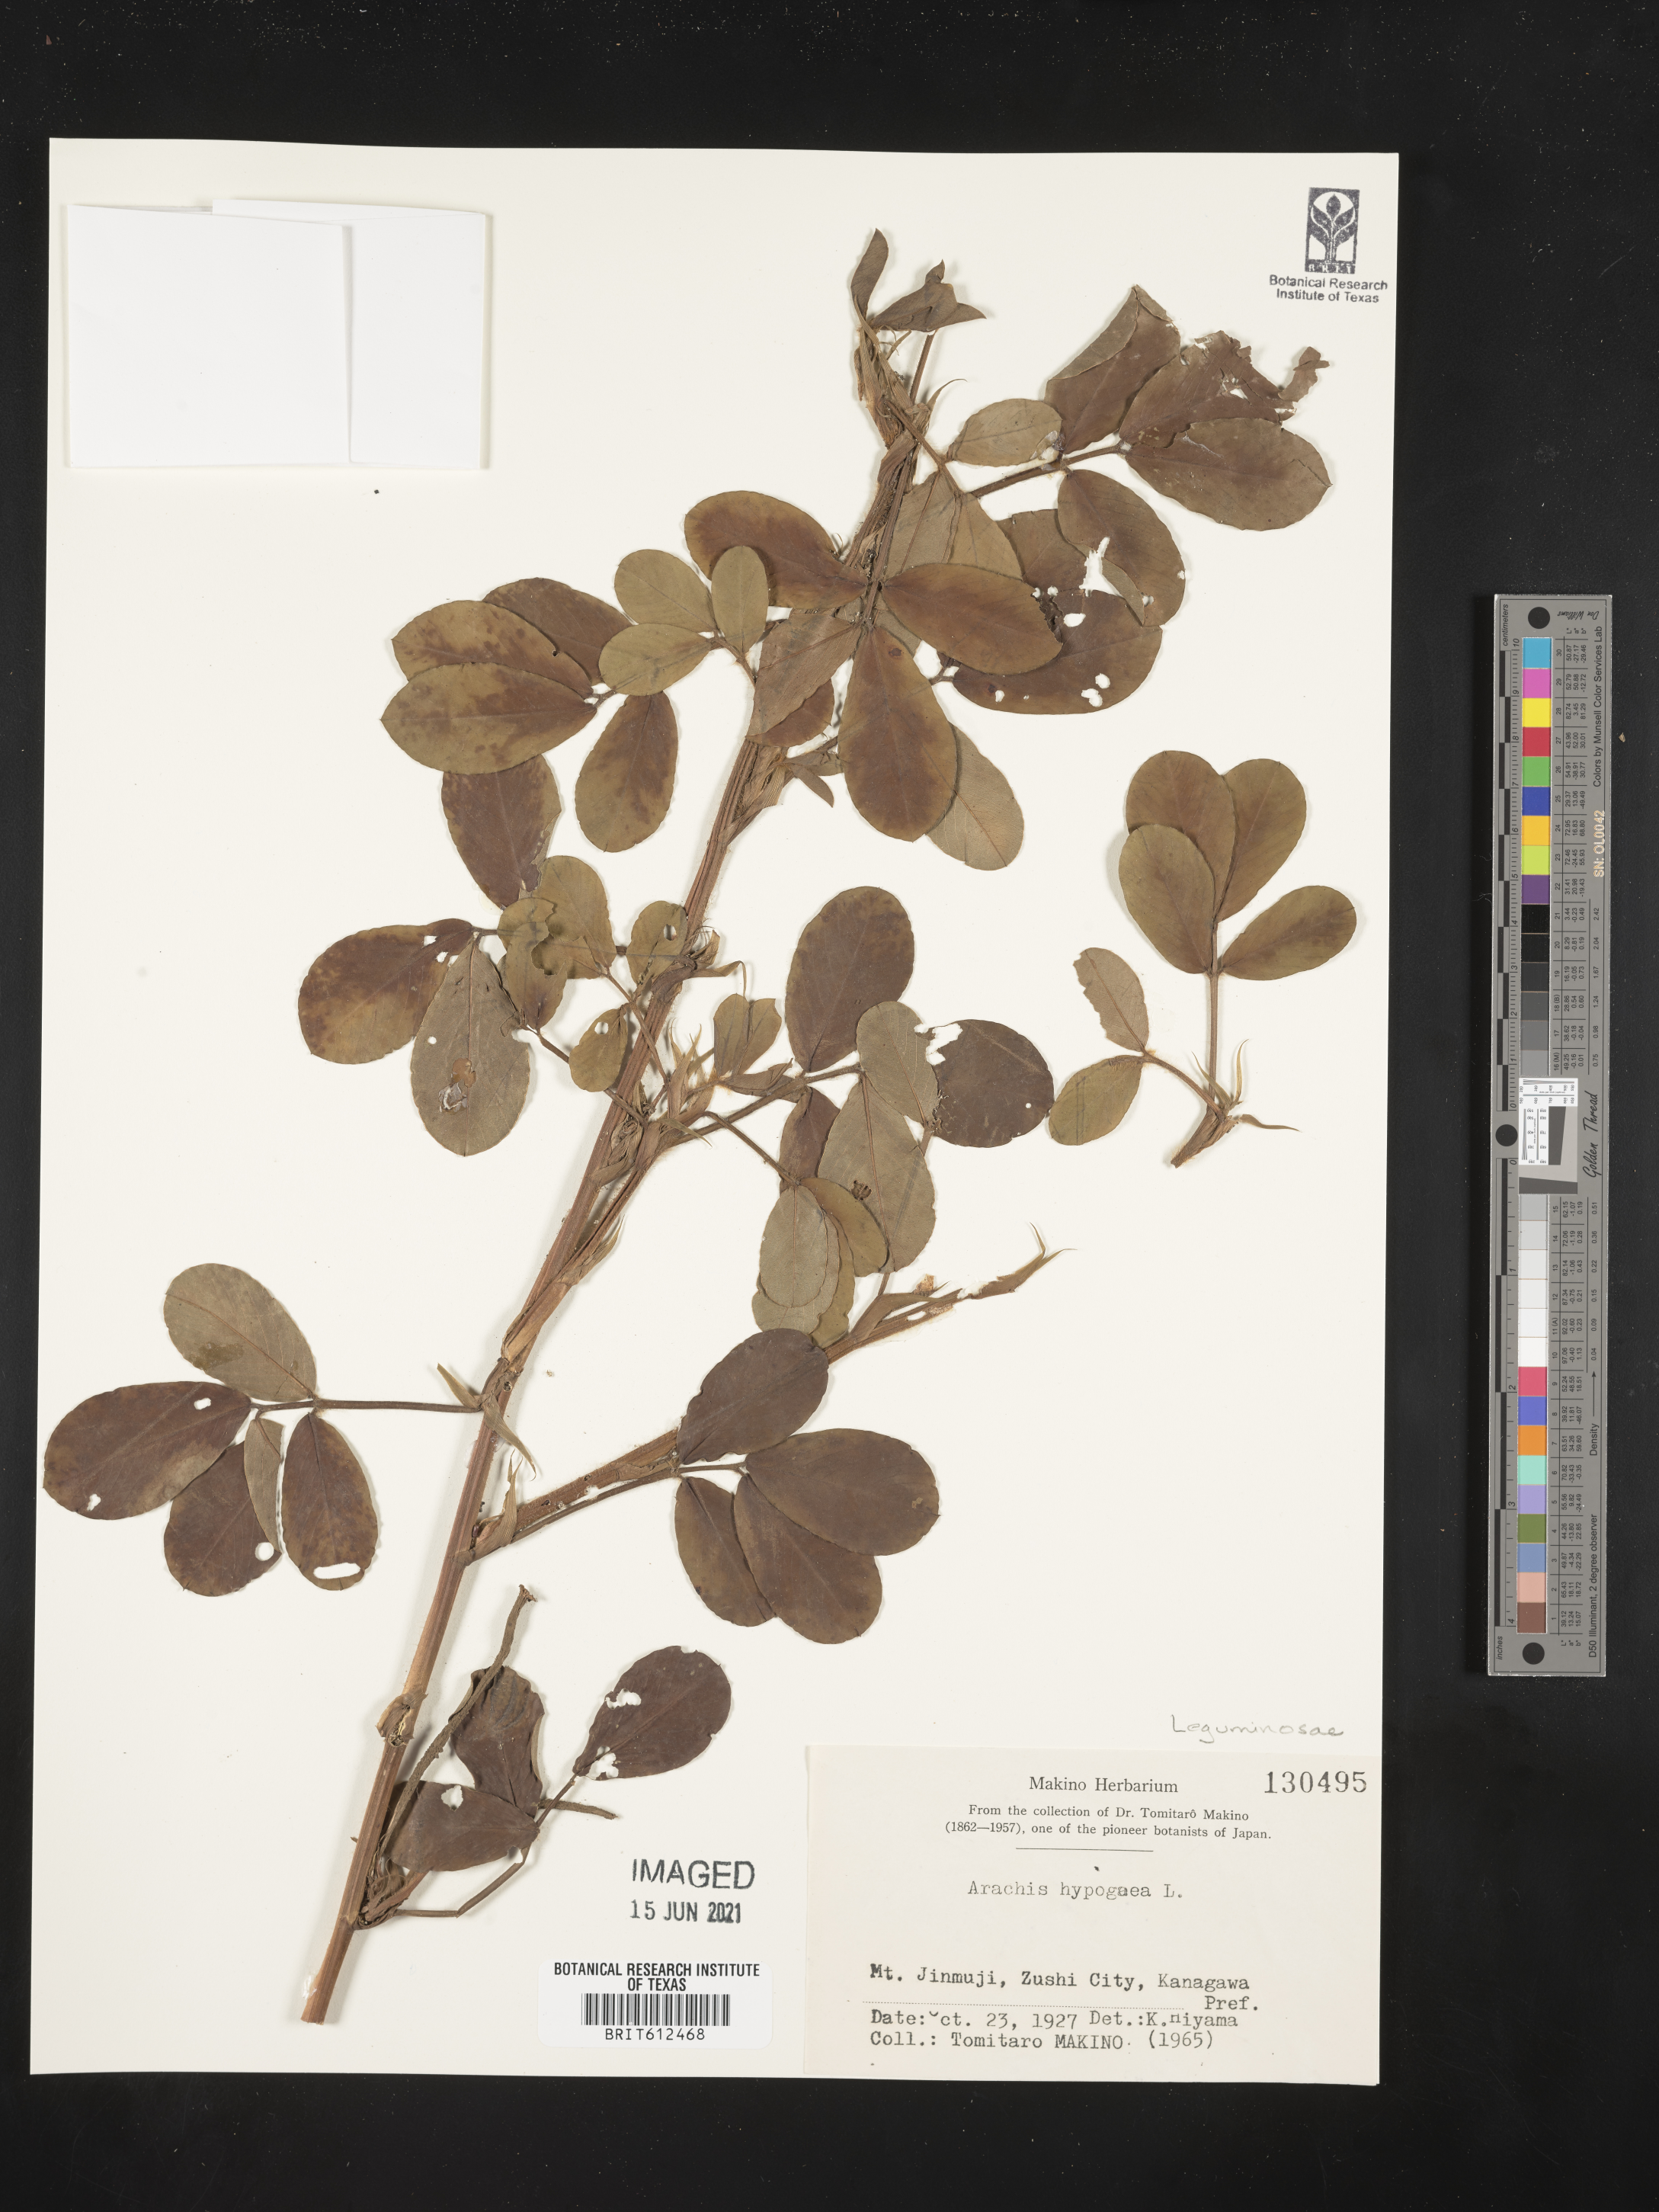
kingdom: Plantae
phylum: Tracheophyta
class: Magnoliopsida
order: Fabales
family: Fabaceae
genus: Arachis
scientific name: Arachis hypogaea
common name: Peanut
